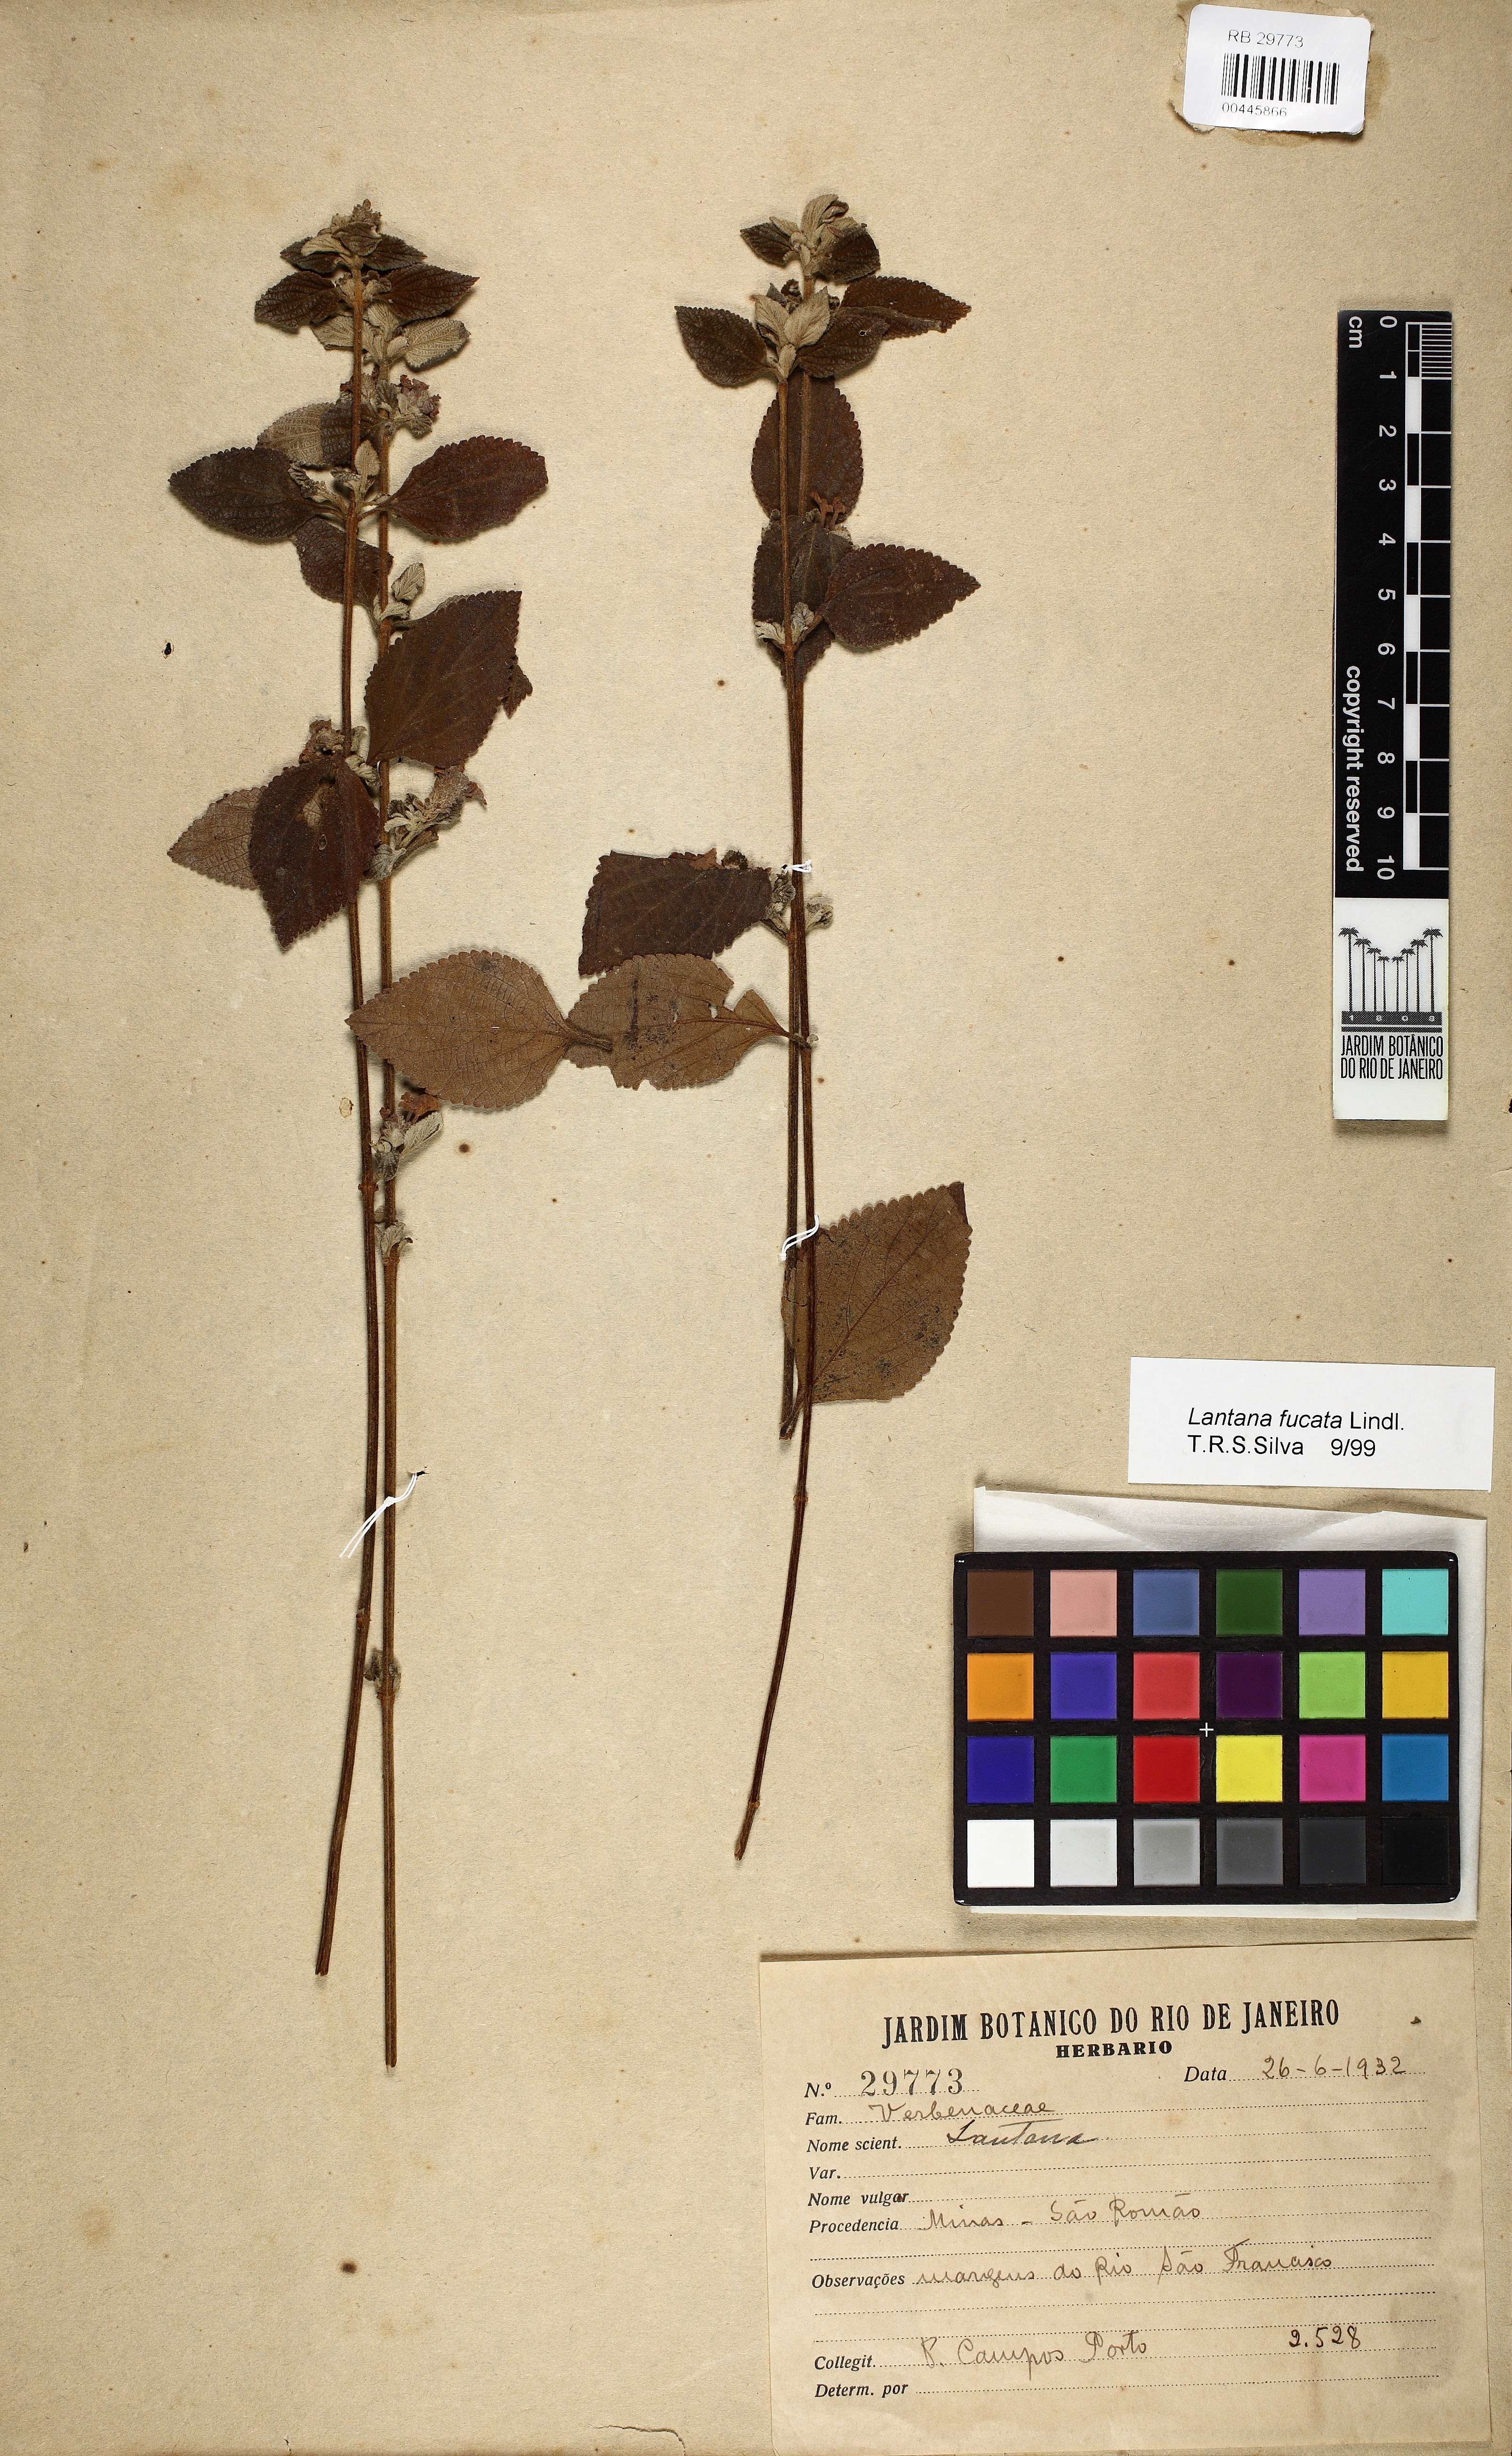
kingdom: Plantae
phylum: Tracheophyta
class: Magnoliopsida
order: Lamiales
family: Verbenaceae
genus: Lantana
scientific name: Lantana fucata
